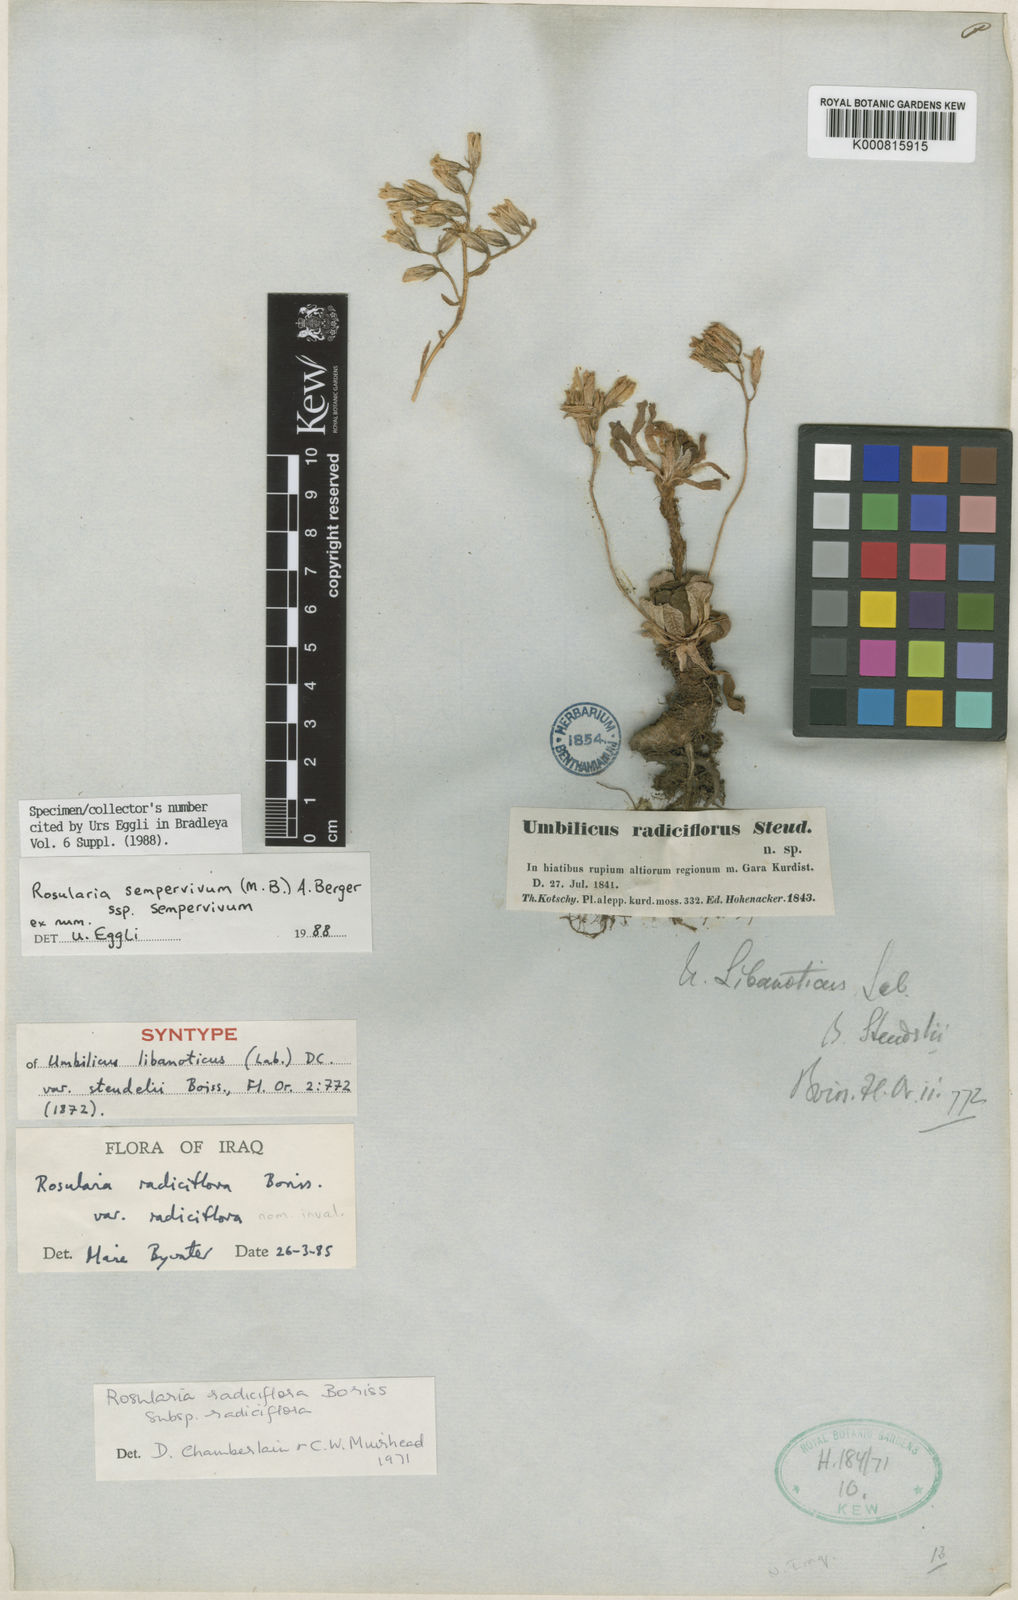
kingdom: Plantae
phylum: Tracheophyta
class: Magnoliopsida
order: Saxifragales
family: Crassulaceae
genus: Rosularia
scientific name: Rosularia sempervivum
